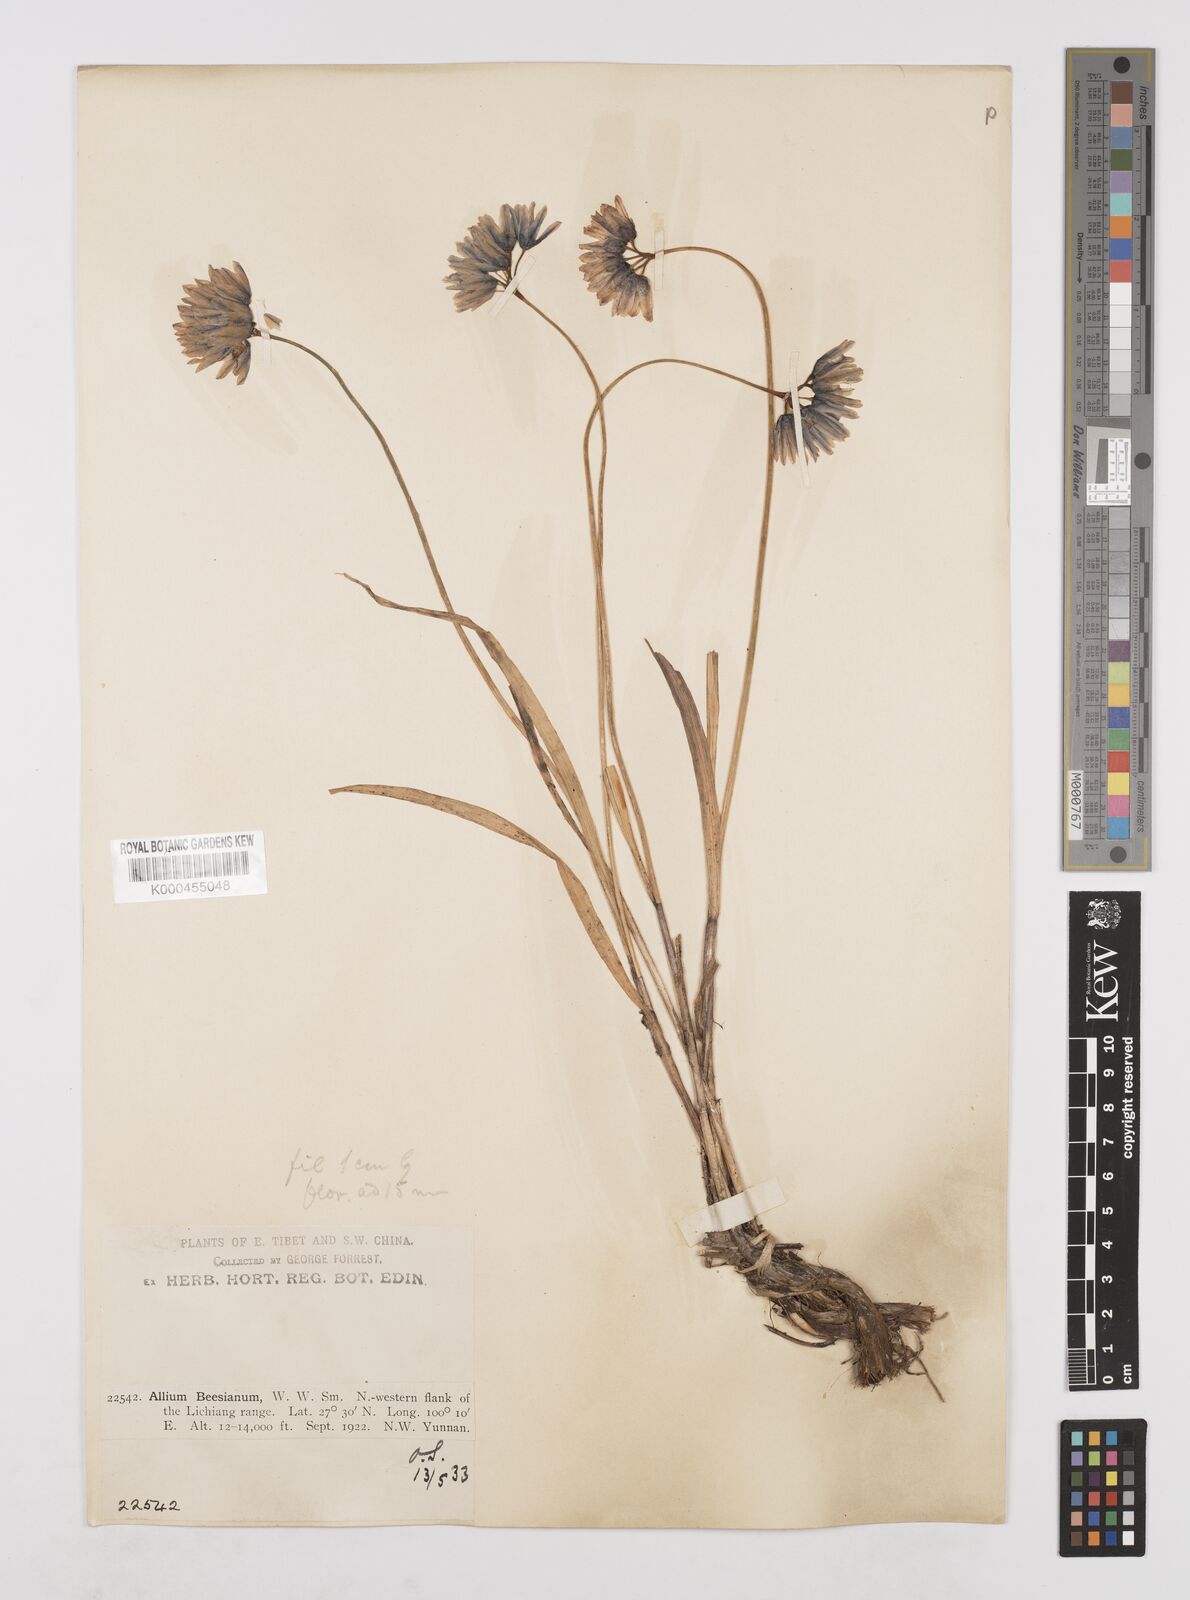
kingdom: Plantae
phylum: Tracheophyta
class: Liliopsida
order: Asparagales
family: Amaryllidaceae
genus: Allium
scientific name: Allium beesianum
